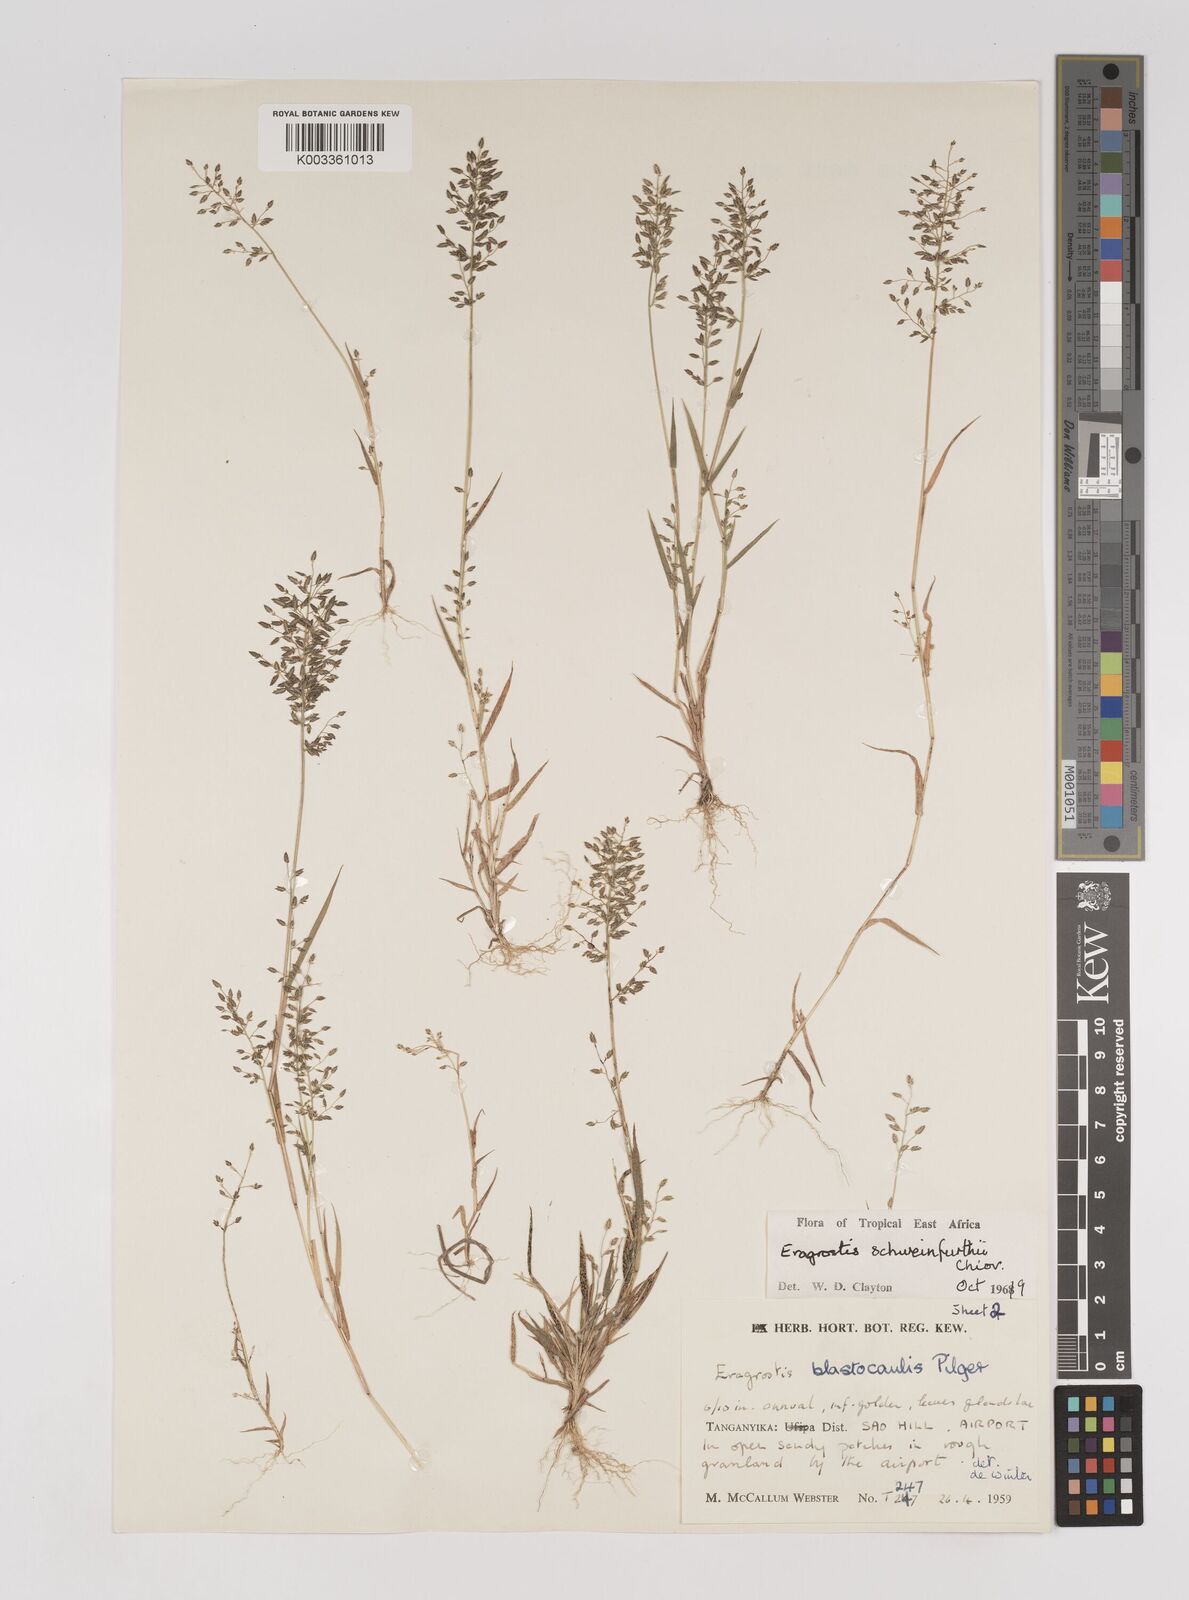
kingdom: Plantae
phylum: Tracheophyta
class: Liliopsida
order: Poales
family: Poaceae
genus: Eragrostis
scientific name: Eragrostis schweinfurthii
